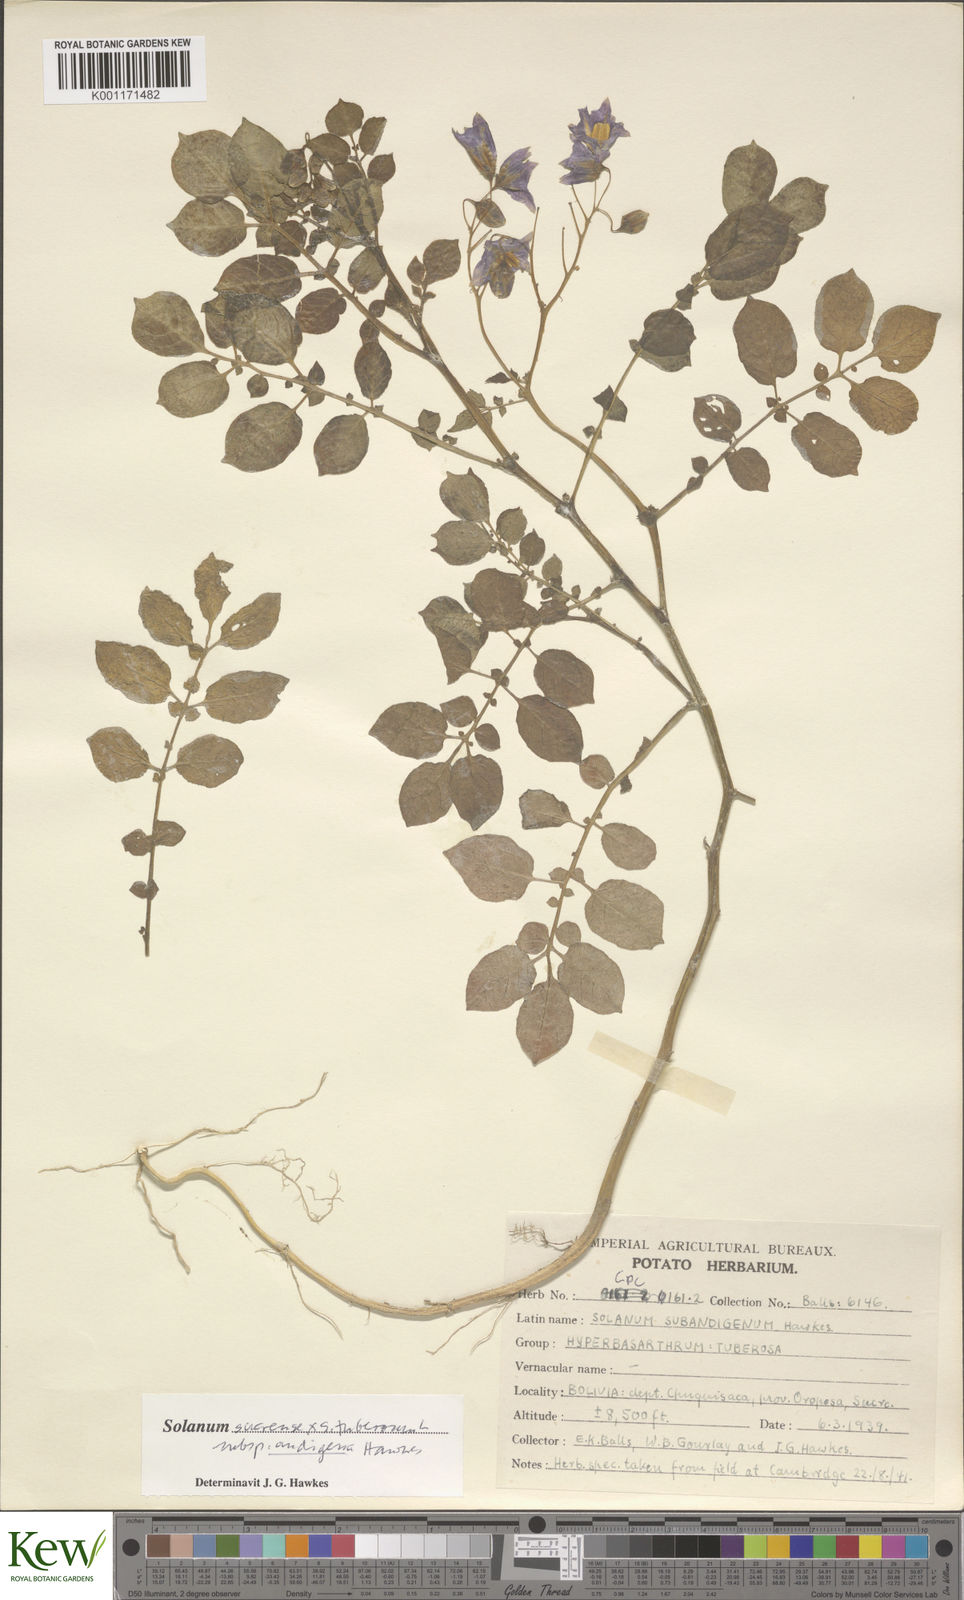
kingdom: Plantae
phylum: Tracheophyta
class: Magnoliopsida
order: Solanales
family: Solanaceae
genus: Solanum
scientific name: Solanum tuberosum
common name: Potato
